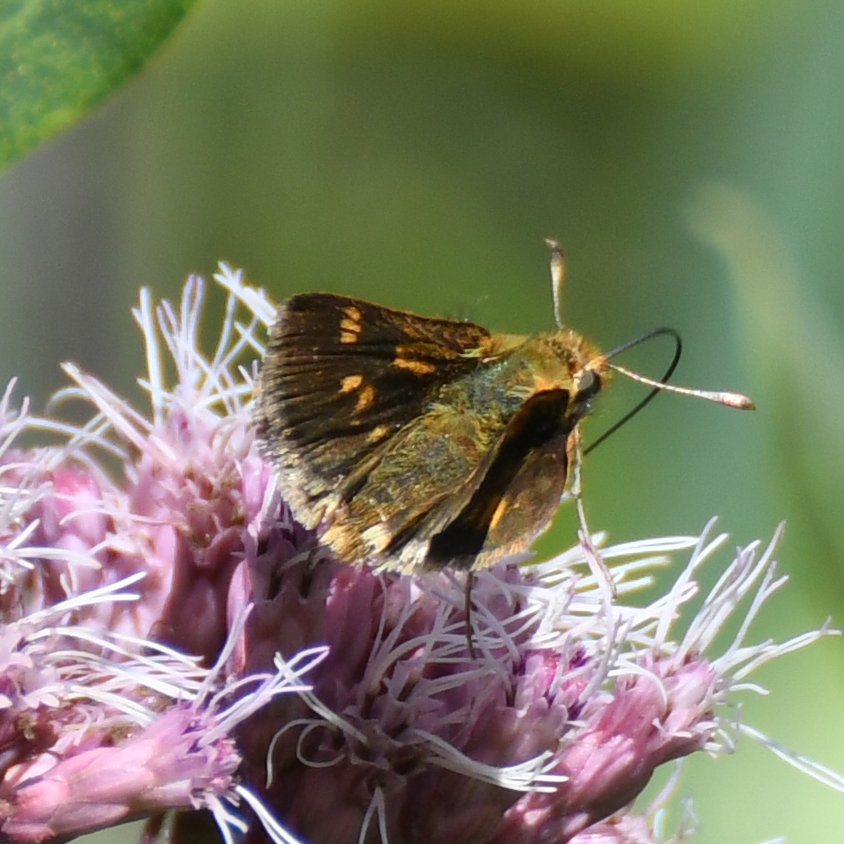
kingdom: Animalia
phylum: Arthropoda
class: Insecta
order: Lepidoptera
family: Hesperiidae
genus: Polites
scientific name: Polites coras
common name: Peck's Skipper
